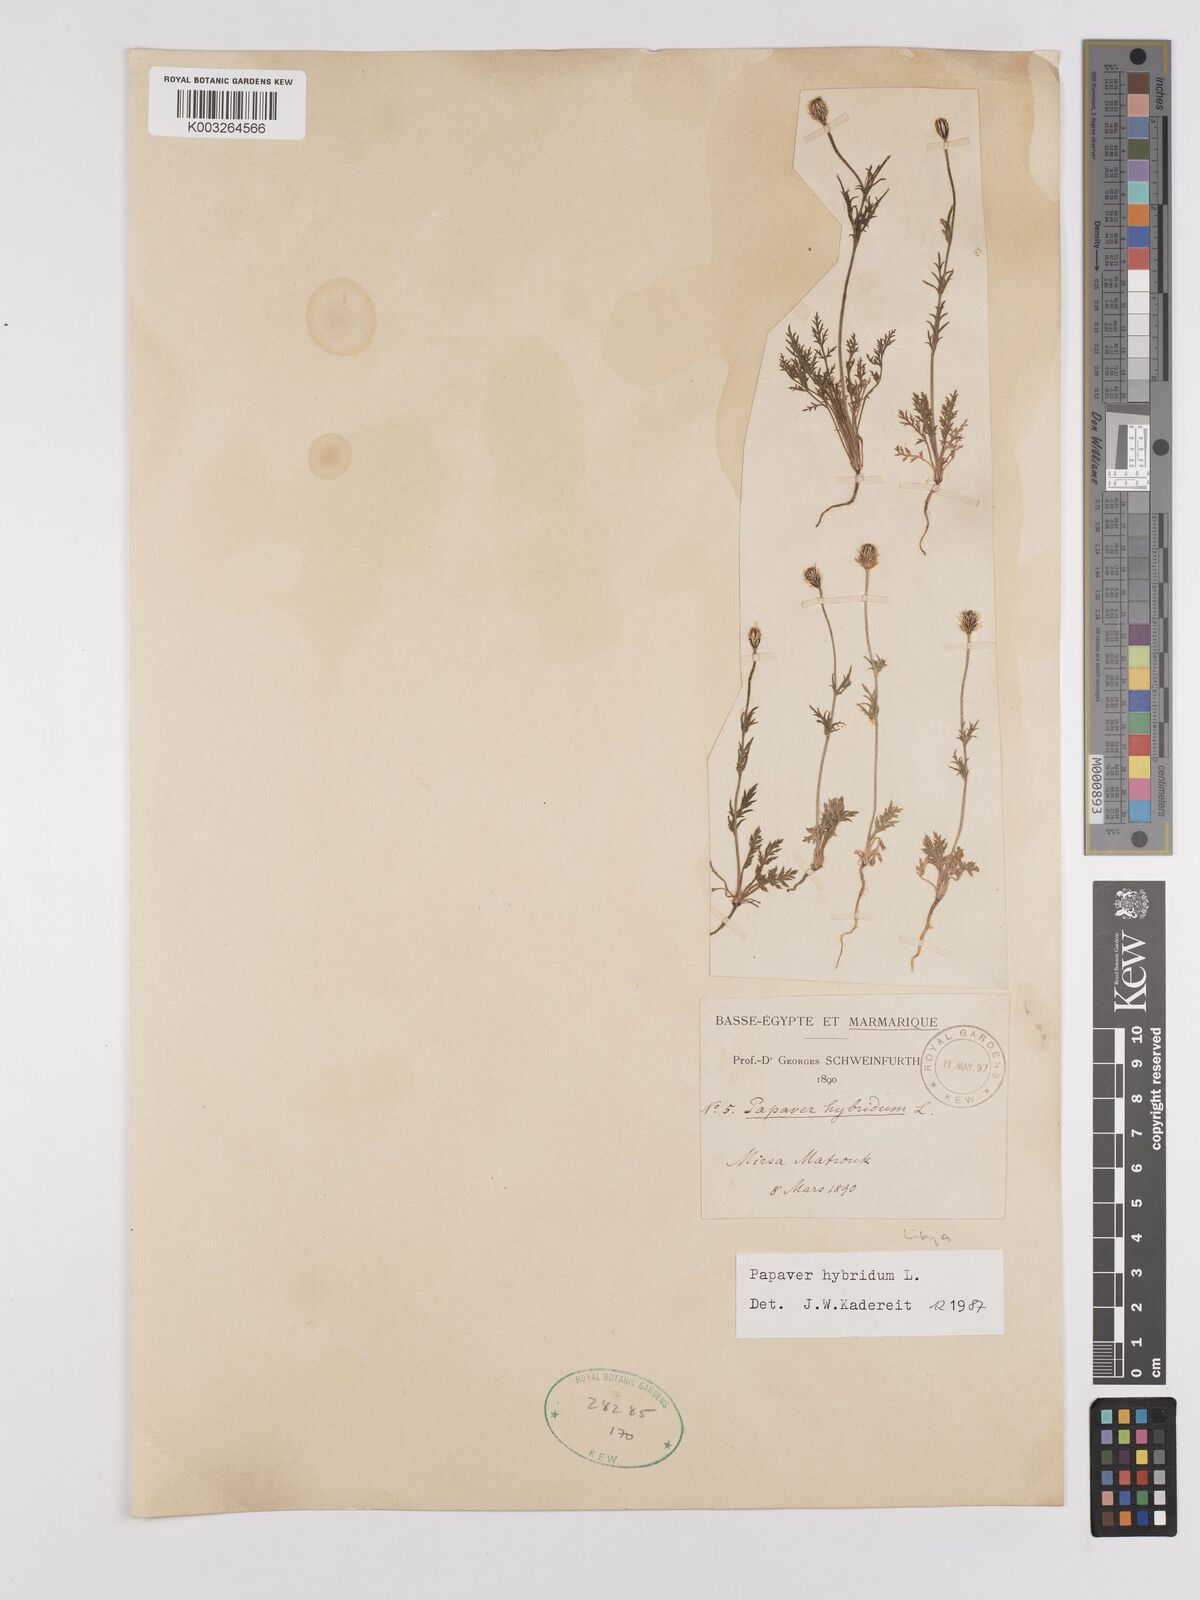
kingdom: Plantae
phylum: Tracheophyta
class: Magnoliopsida
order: Ranunculales
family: Papaveraceae
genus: Papaver
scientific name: Papaver
